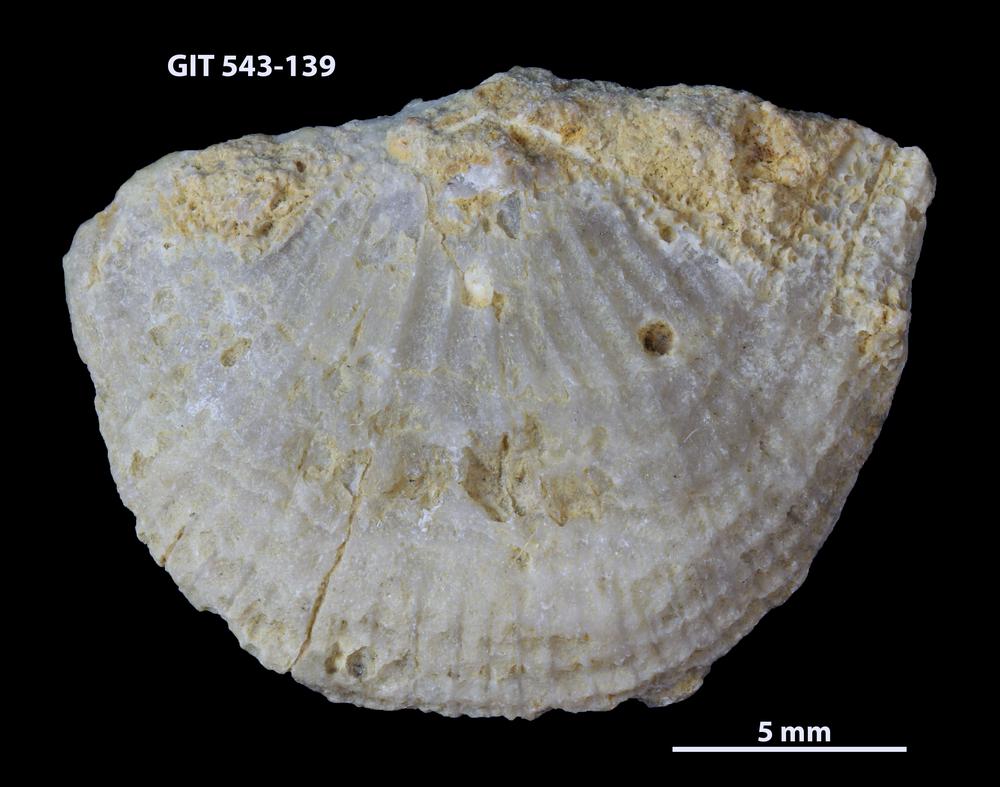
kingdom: Animalia
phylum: Brachiopoda
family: Gonambonitidae
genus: Estlandia
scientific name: Estlandia Orthisina marginata
